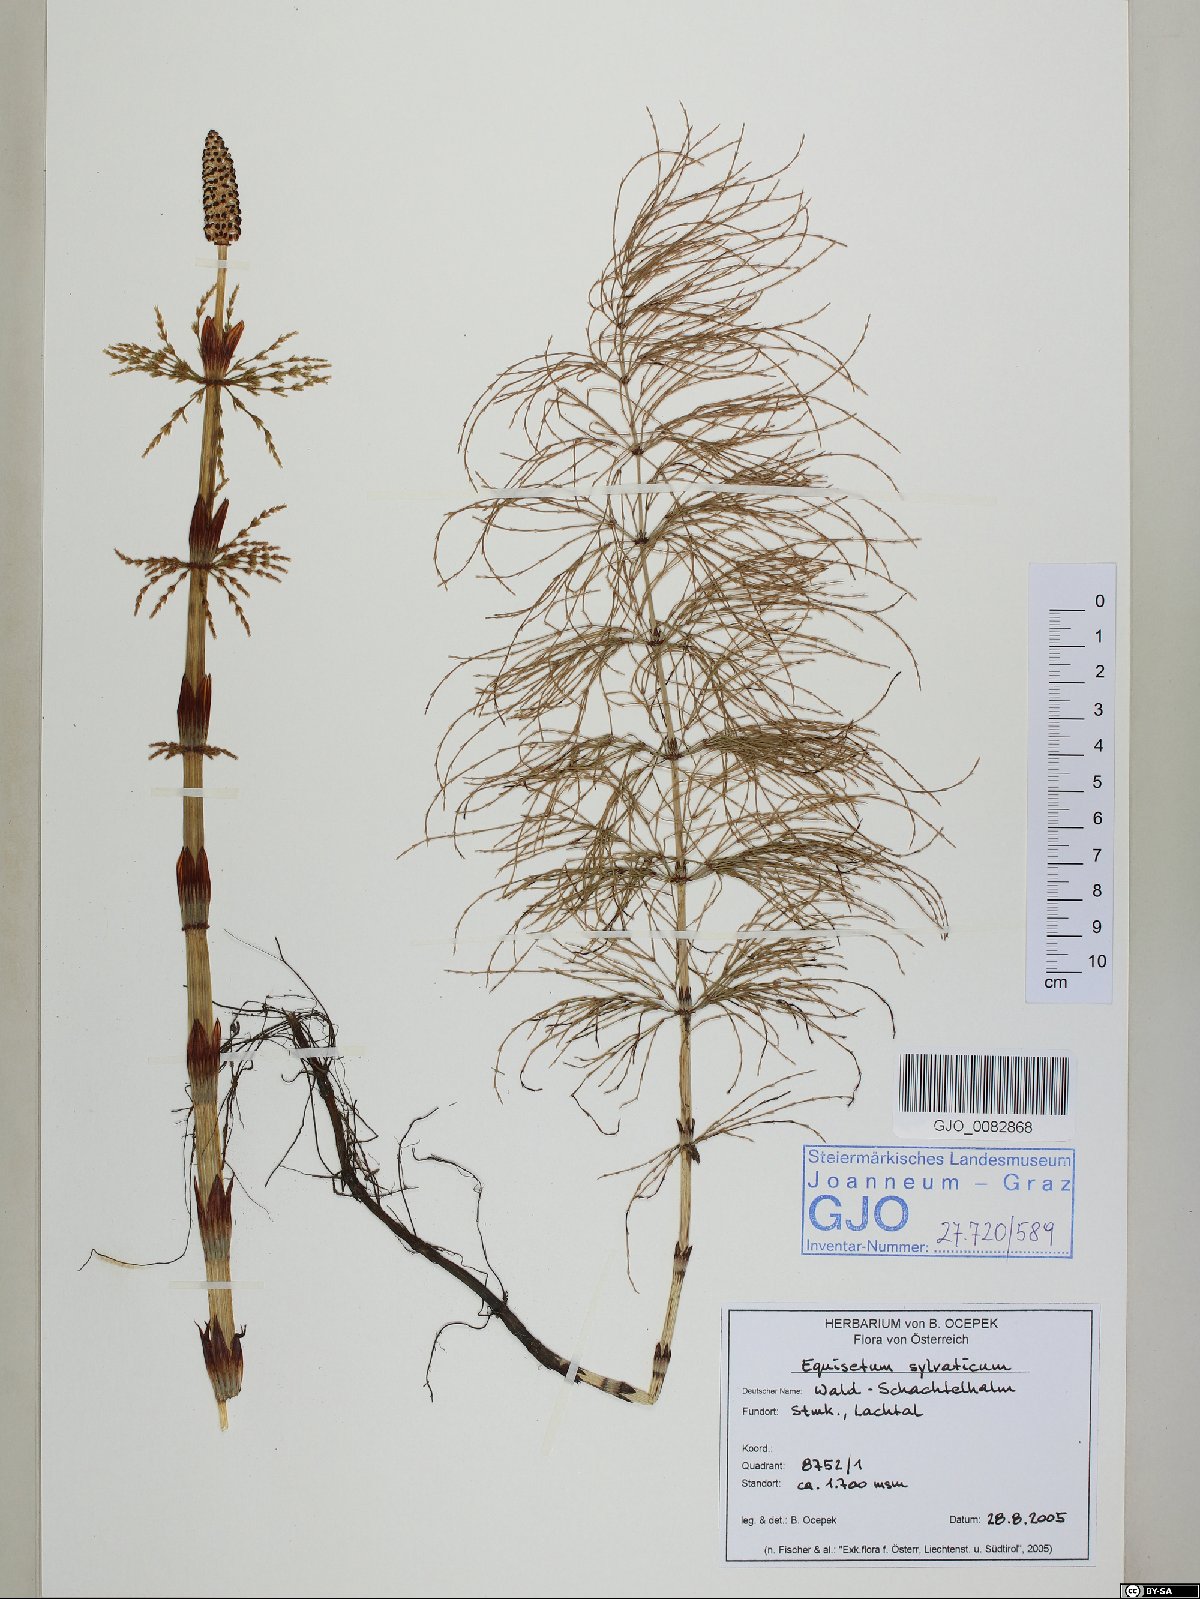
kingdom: Plantae
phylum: Tracheophyta
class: Polypodiopsida
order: Equisetales
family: Equisetaceae
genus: Equisetum
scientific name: Equisetum sylvaticum
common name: Wood horsetail
